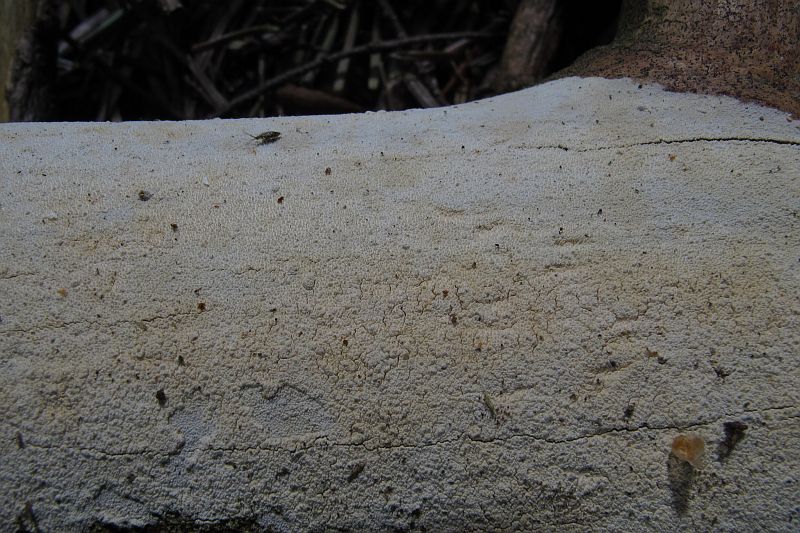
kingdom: Fungi
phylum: Basidiomycota
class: Agaricomycetes
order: Hymenochaetales
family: Schizoporaceae
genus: Xylodon
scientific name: Xylodon nesporii
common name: fintandet tandsvamp
